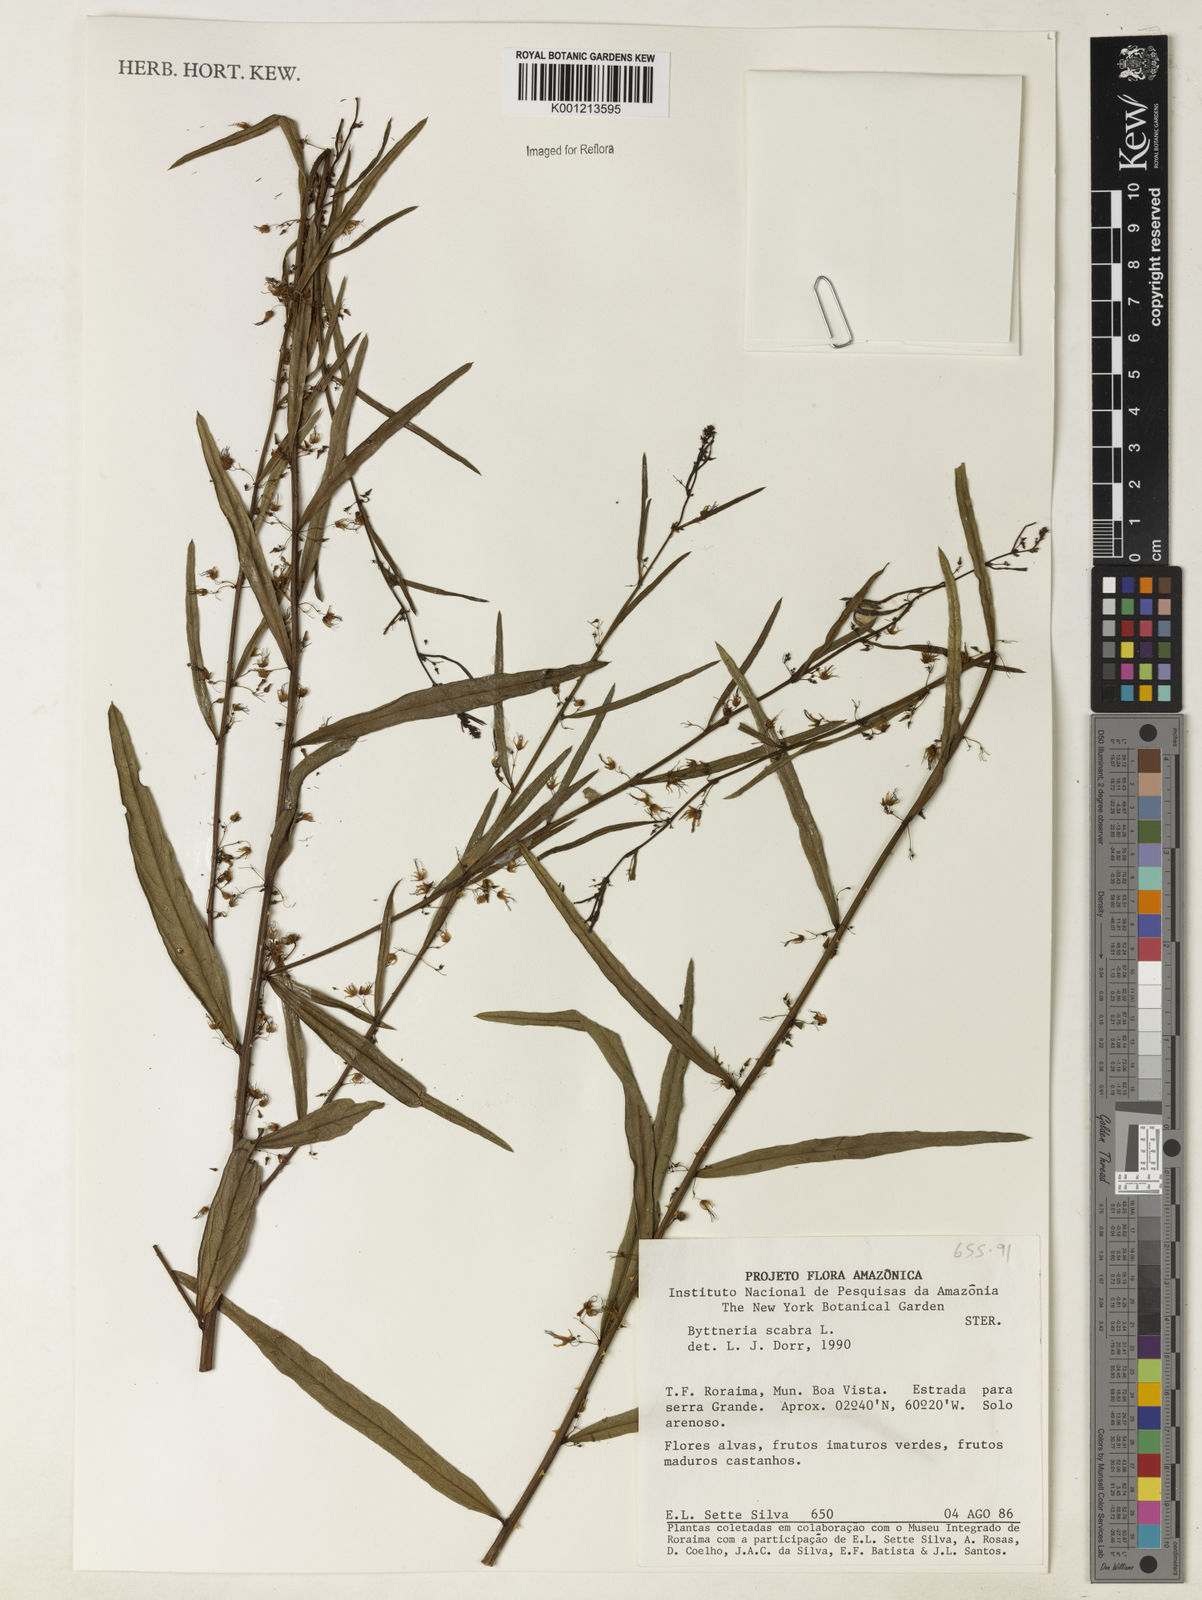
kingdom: Plantae
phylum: Tracheophyta
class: Magnoliopsida
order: Malvales
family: Malvaceae
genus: Byttneria
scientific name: Byttneria
